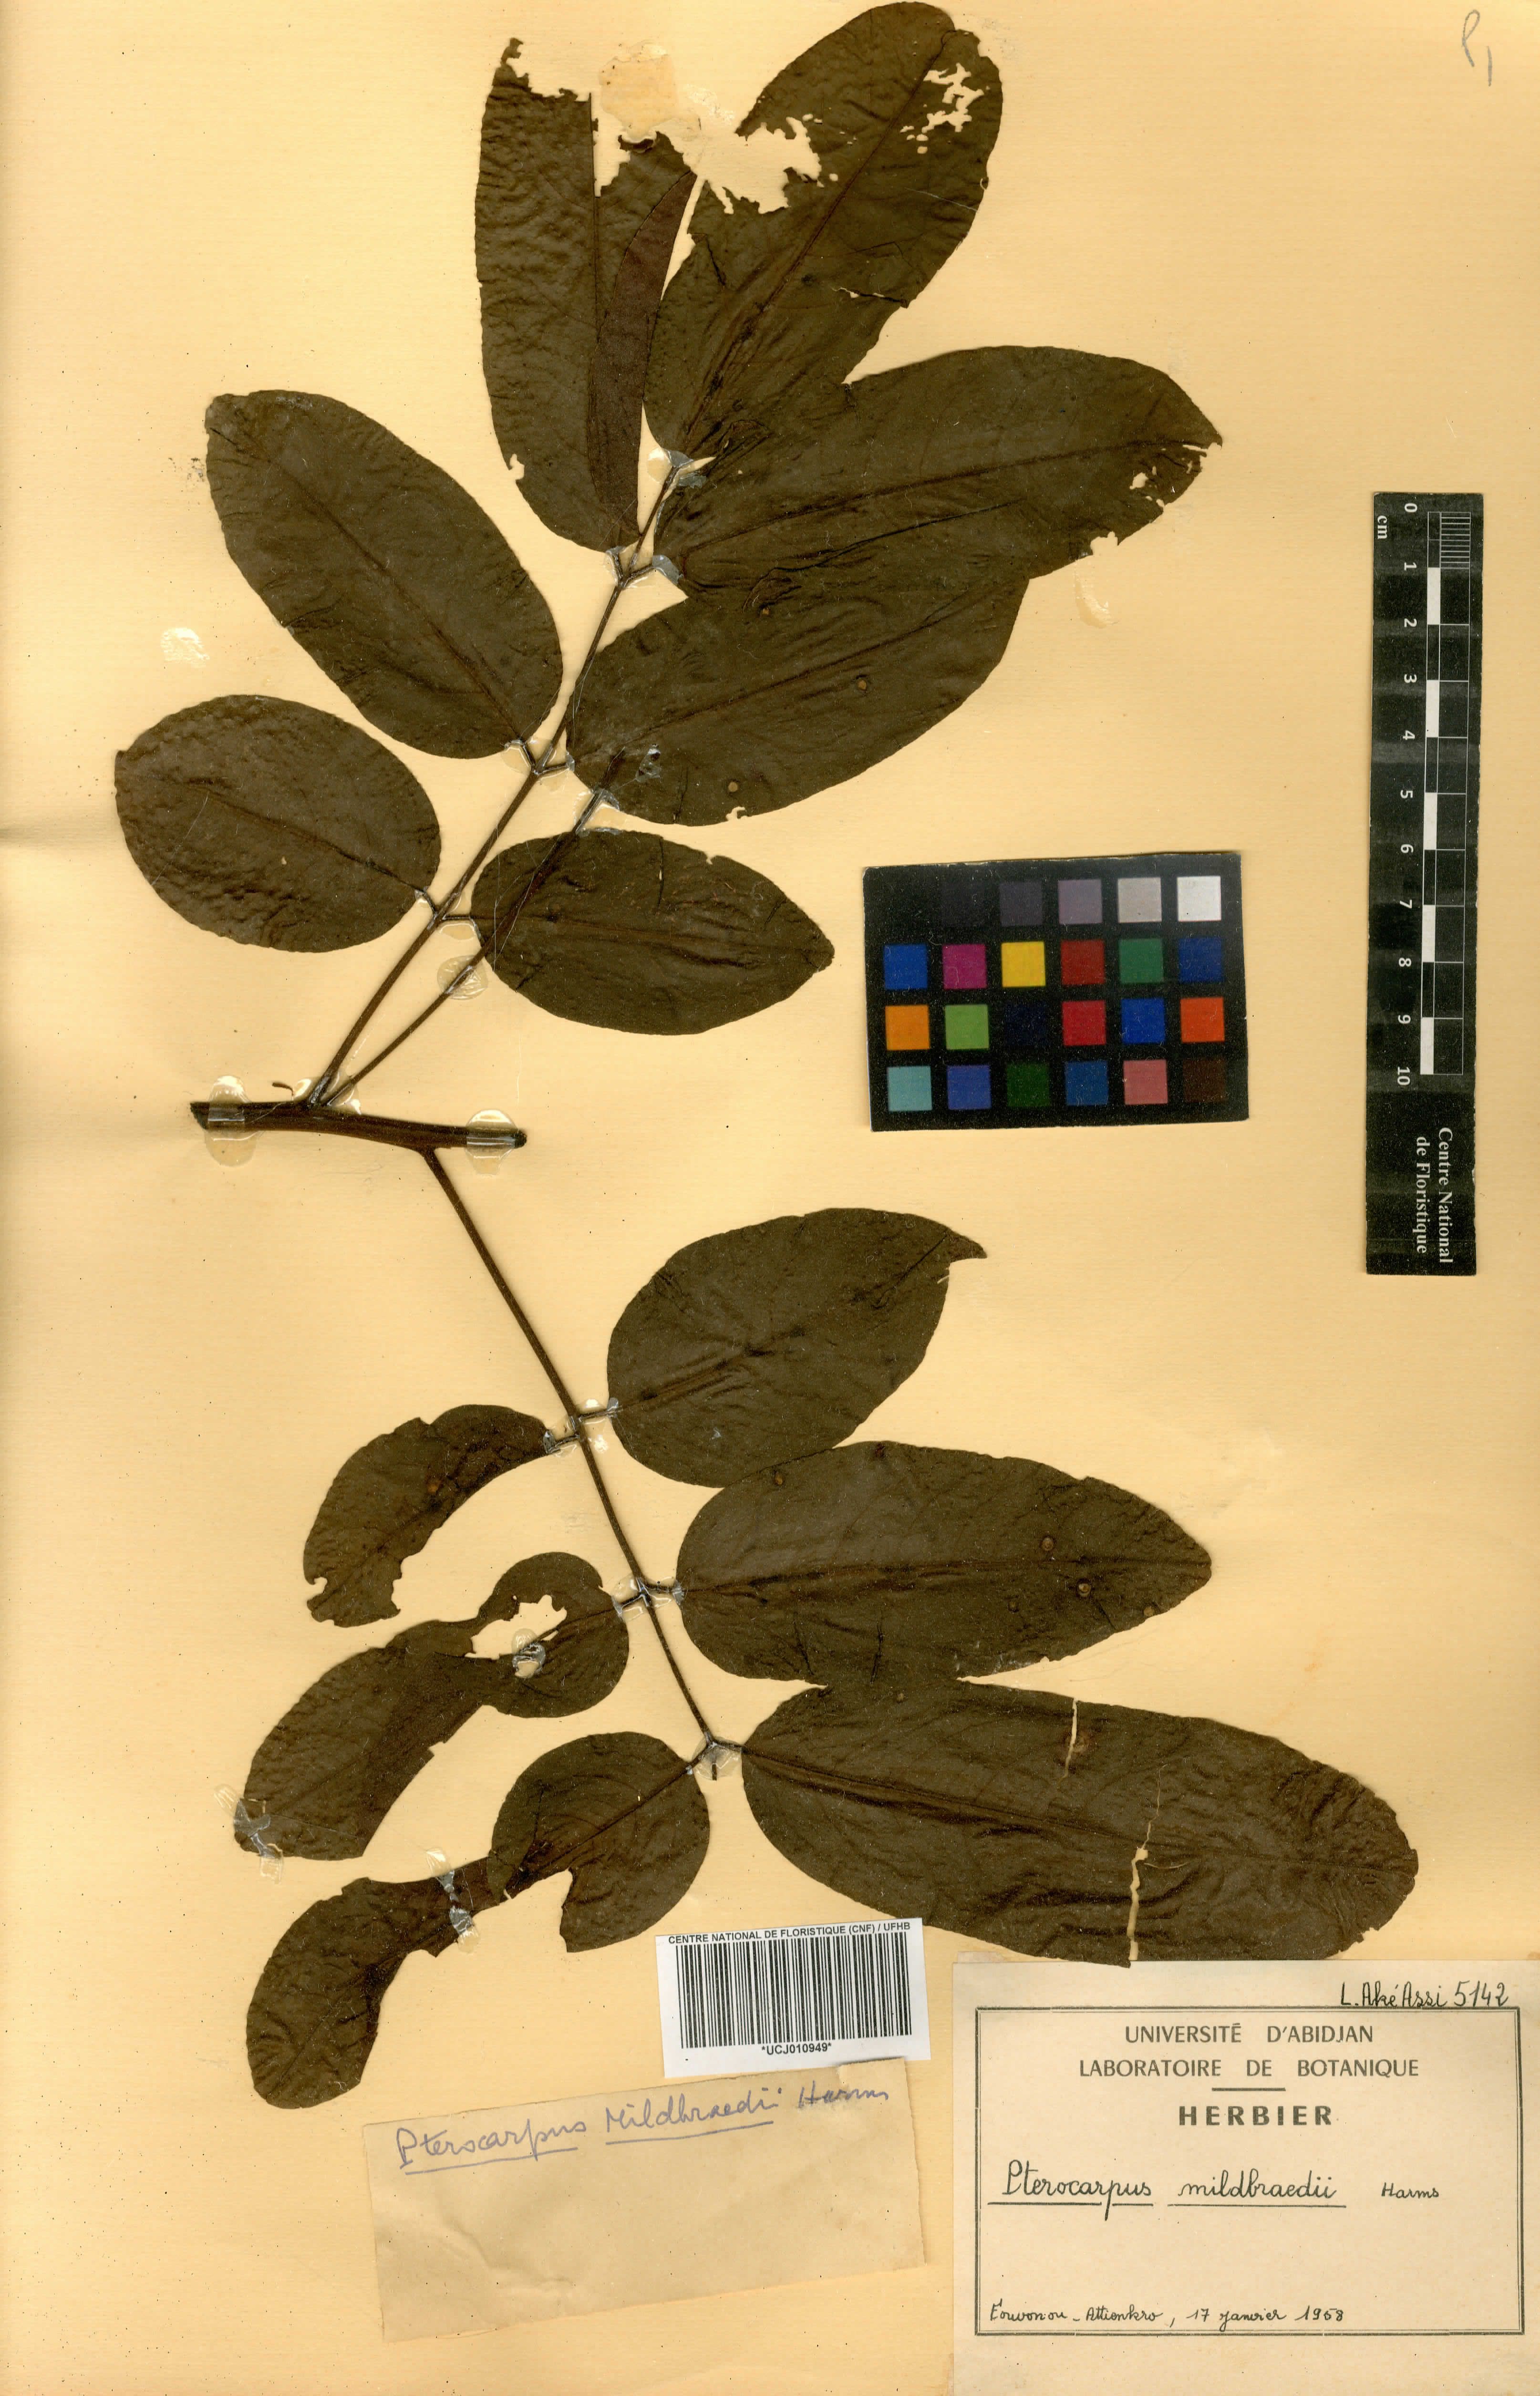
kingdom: Plantae
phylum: Tracheophyta
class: Magnoliopsida
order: Fabales
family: Fabaceae
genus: Pterocarpus
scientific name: Pterocarpus mildbraedii
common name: White padouk
